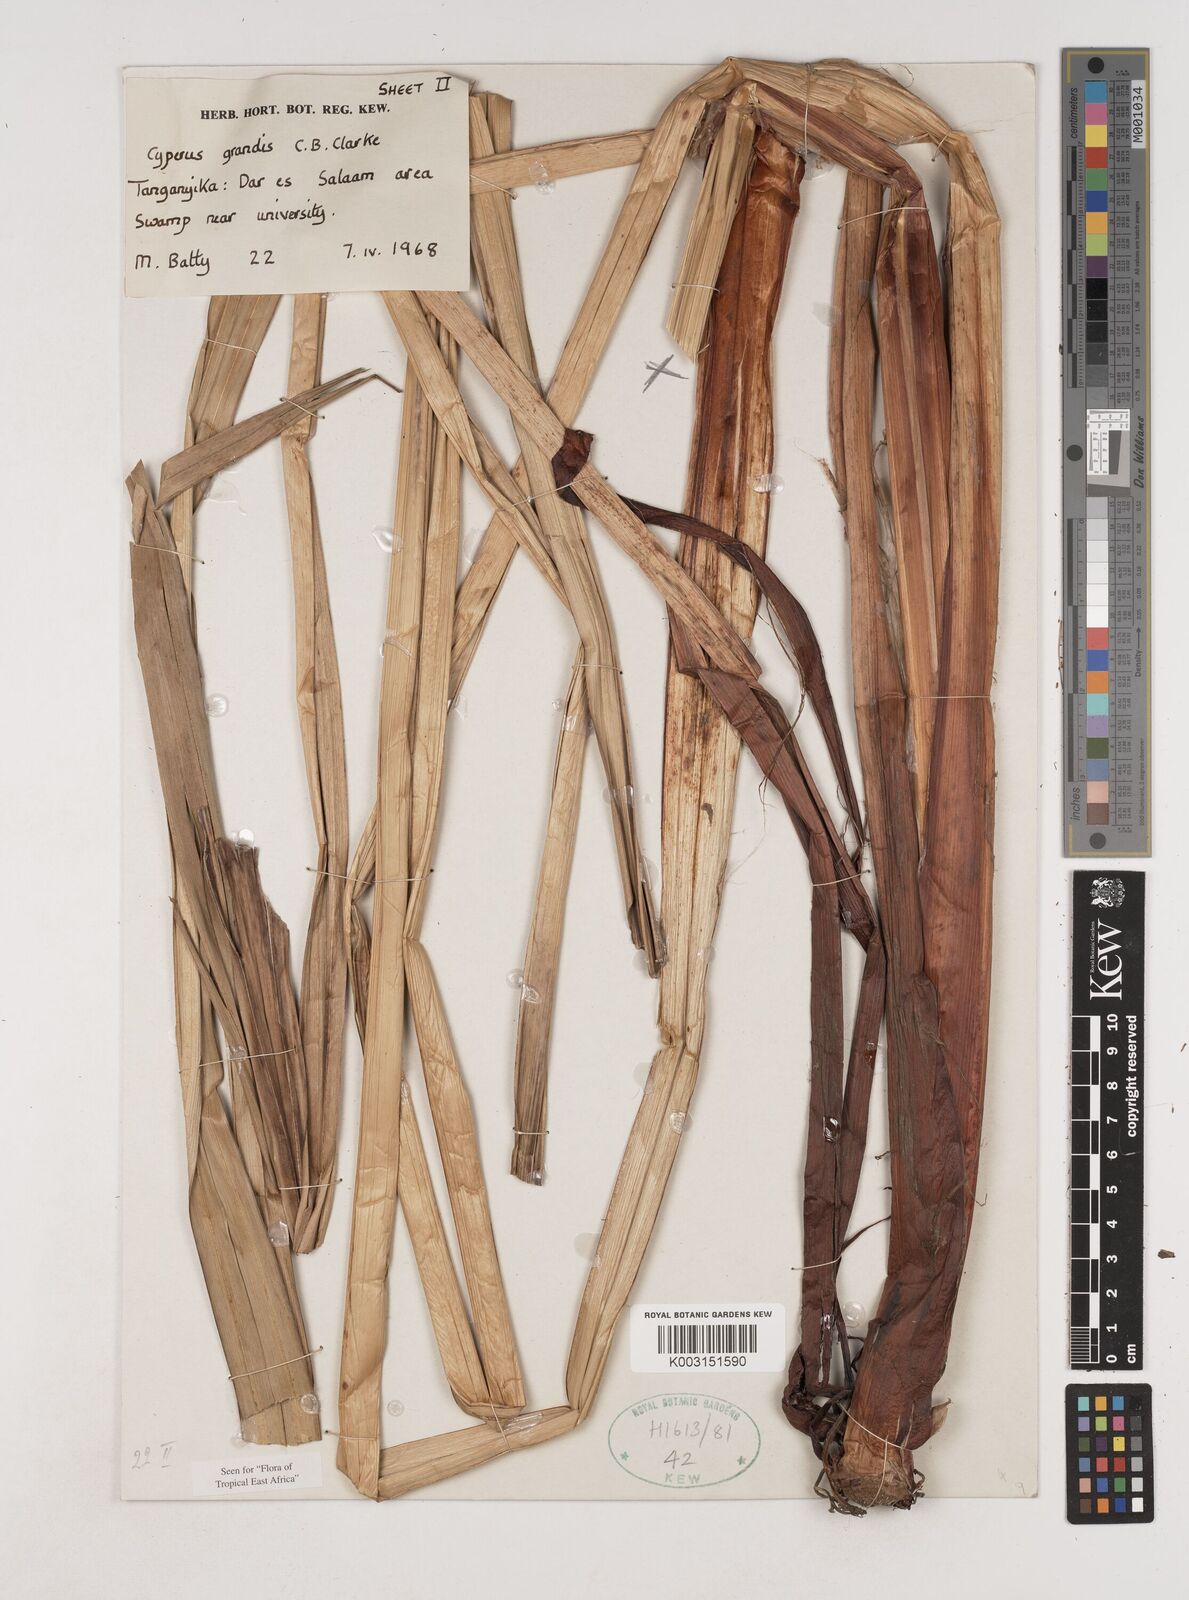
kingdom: Plantae
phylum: Tracheophyta
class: Liliopsida
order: Poales
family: Cyperaceae
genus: Cyperus
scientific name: Cyperus grandis
